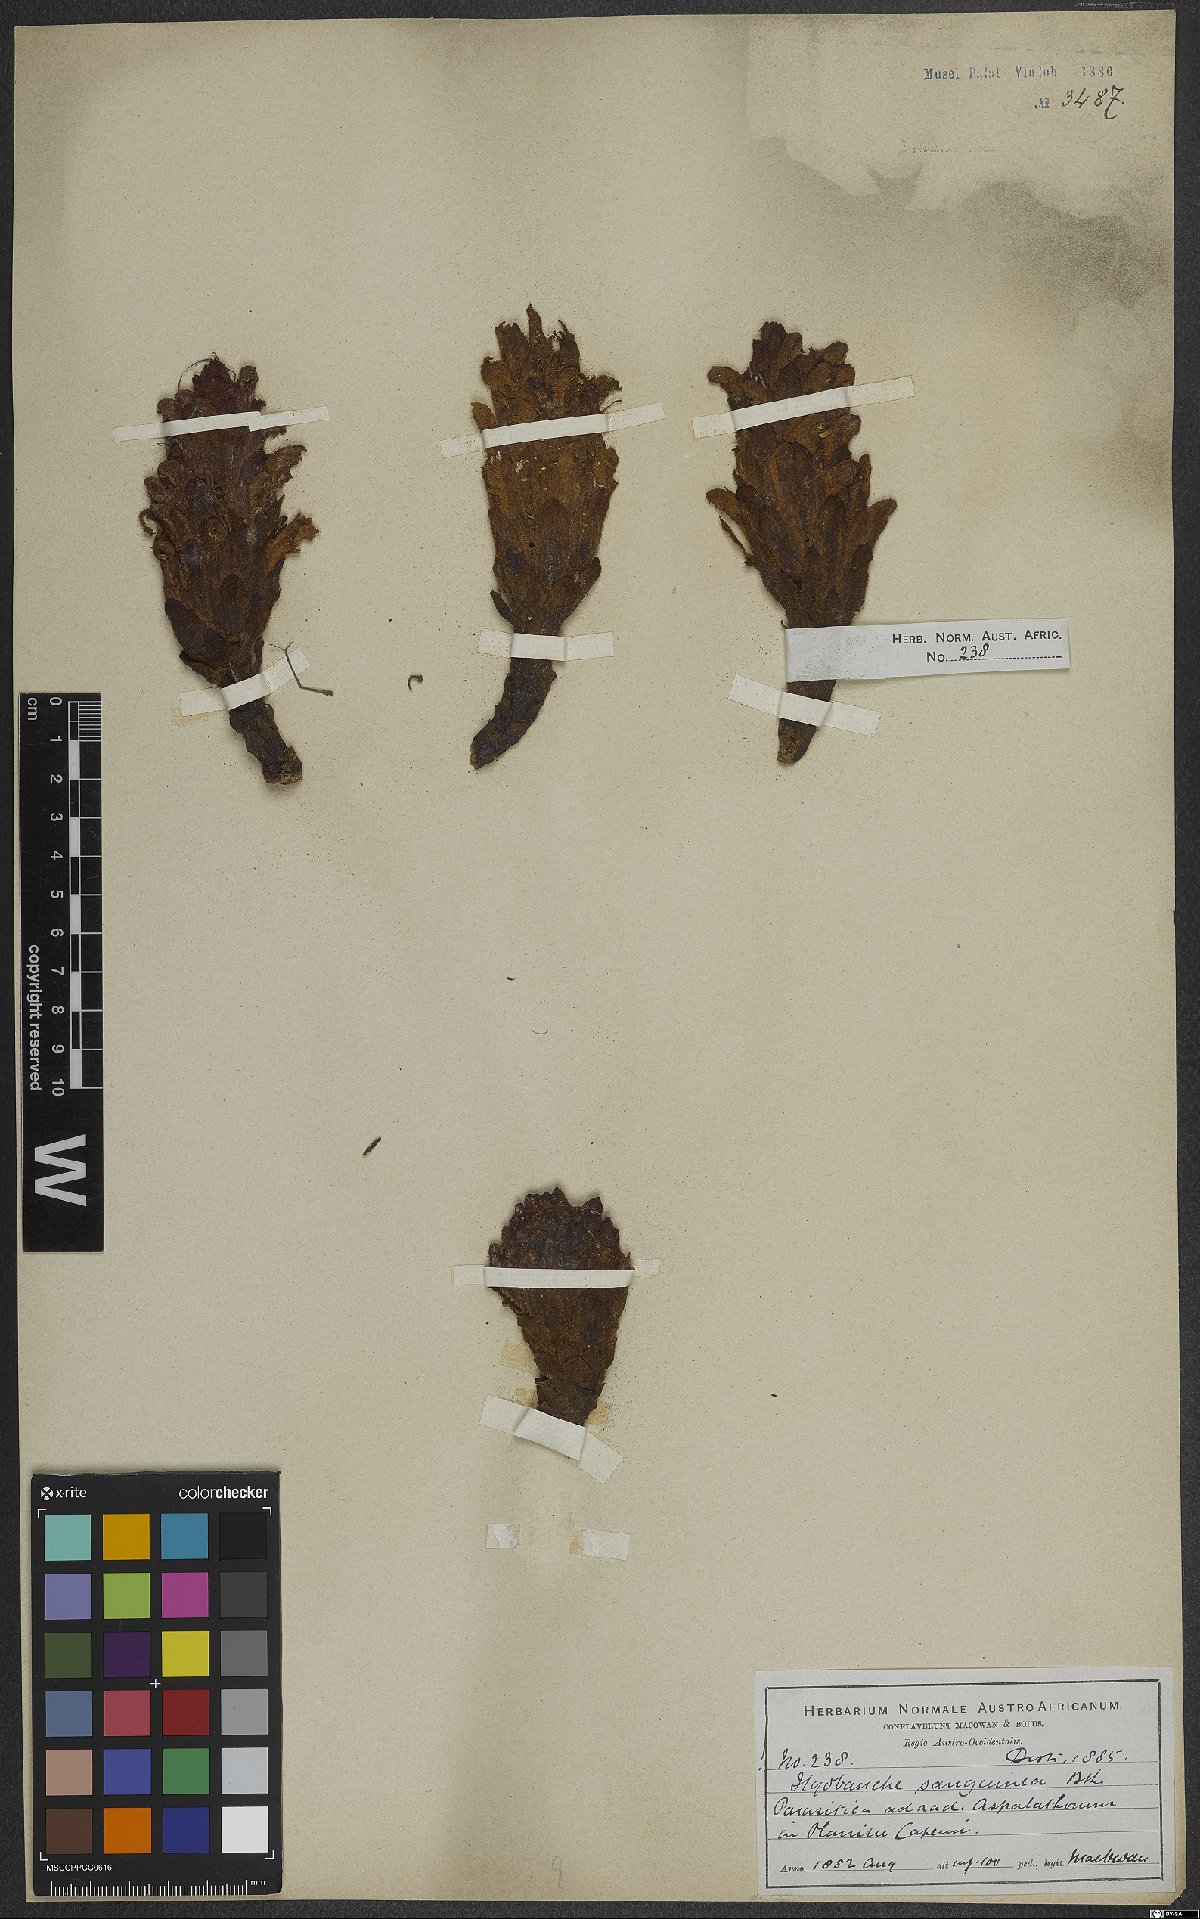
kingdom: Plantae
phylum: Tracheophyta
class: Magnoliopsida
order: Lamiales
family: Orobanchaceae
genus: Hyobanche
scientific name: Hyobanche sanguinea
